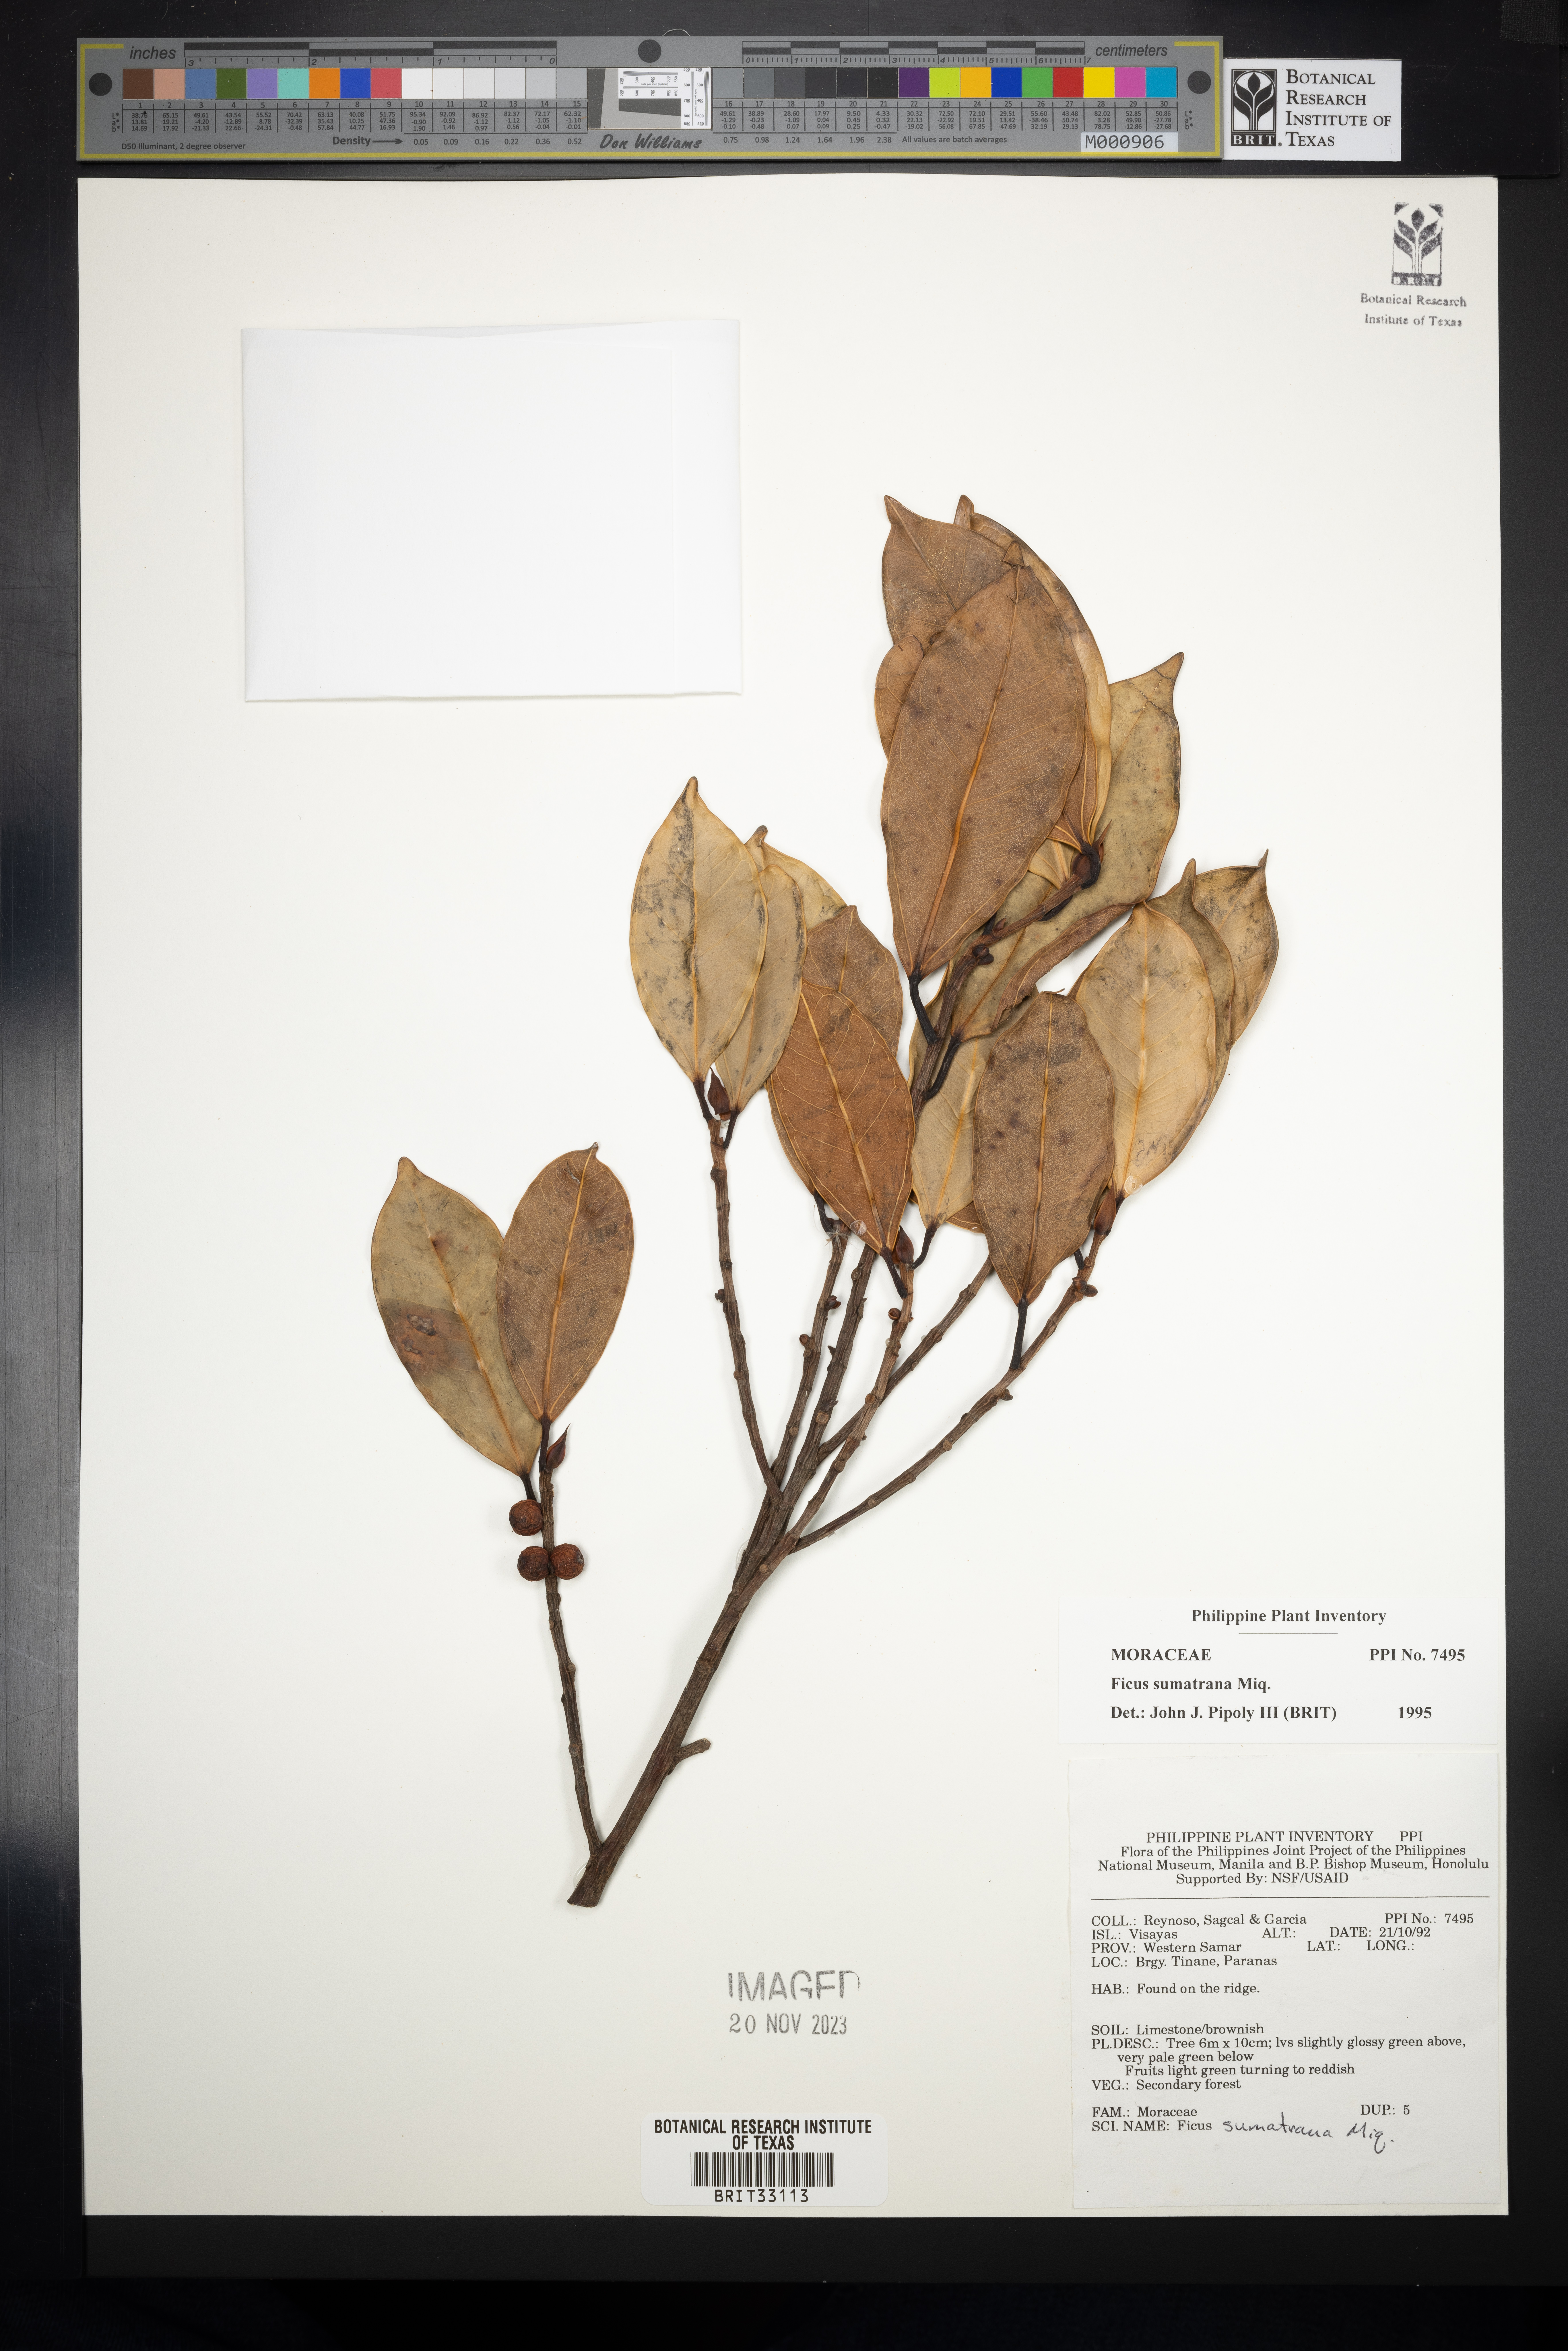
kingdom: Plantae
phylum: Tracheophyta
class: Magnoliopsida
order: Rosales
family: Moraceae
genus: Ficus
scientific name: Ficus sumatrana
